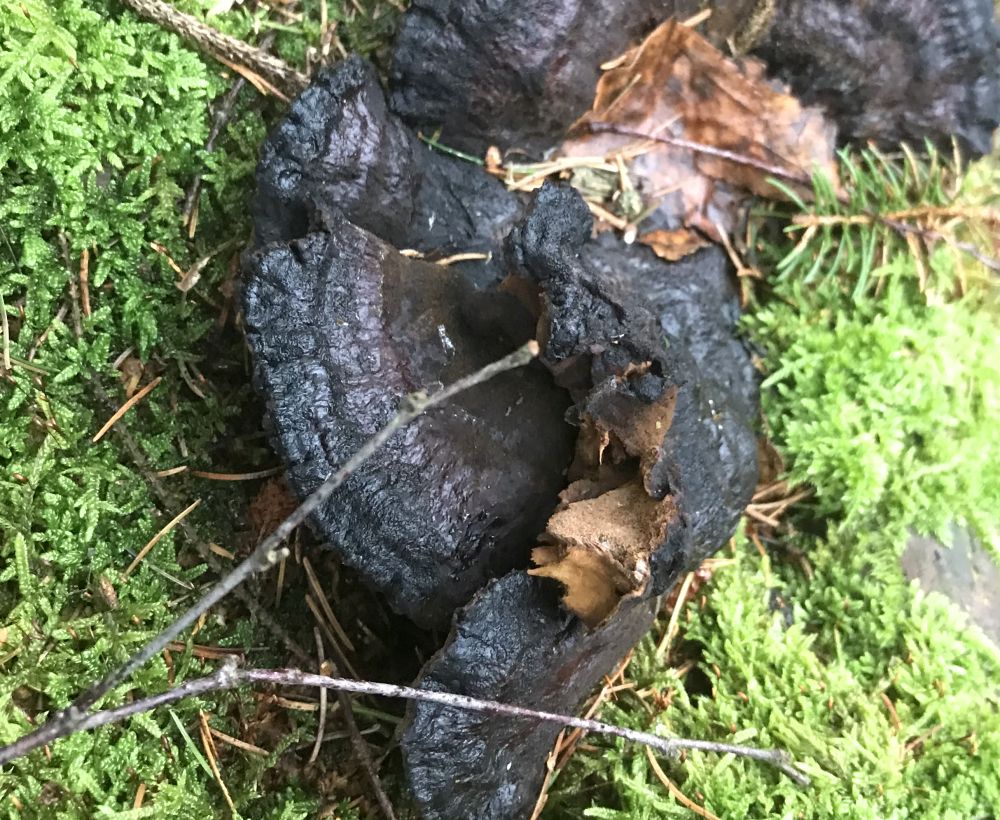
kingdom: Fungi
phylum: Basidiomycota
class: Agaricomycetes
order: Polyporales
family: Ischnodermataceae
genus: Ischnoderma
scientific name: Ischnoderma benzoinum
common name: gran-tjæreporesvamp
